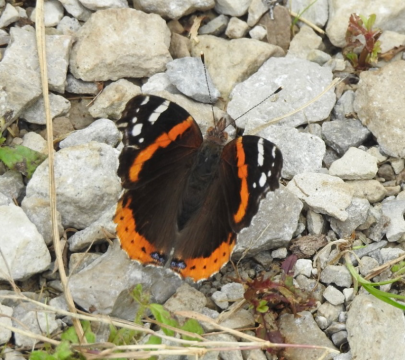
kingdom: Animalia
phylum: Arthropoda
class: Insecta
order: Lepidoptera
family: Nymphalidae
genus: Vanessa
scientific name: Vanessa atalanta
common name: Red Admiral
